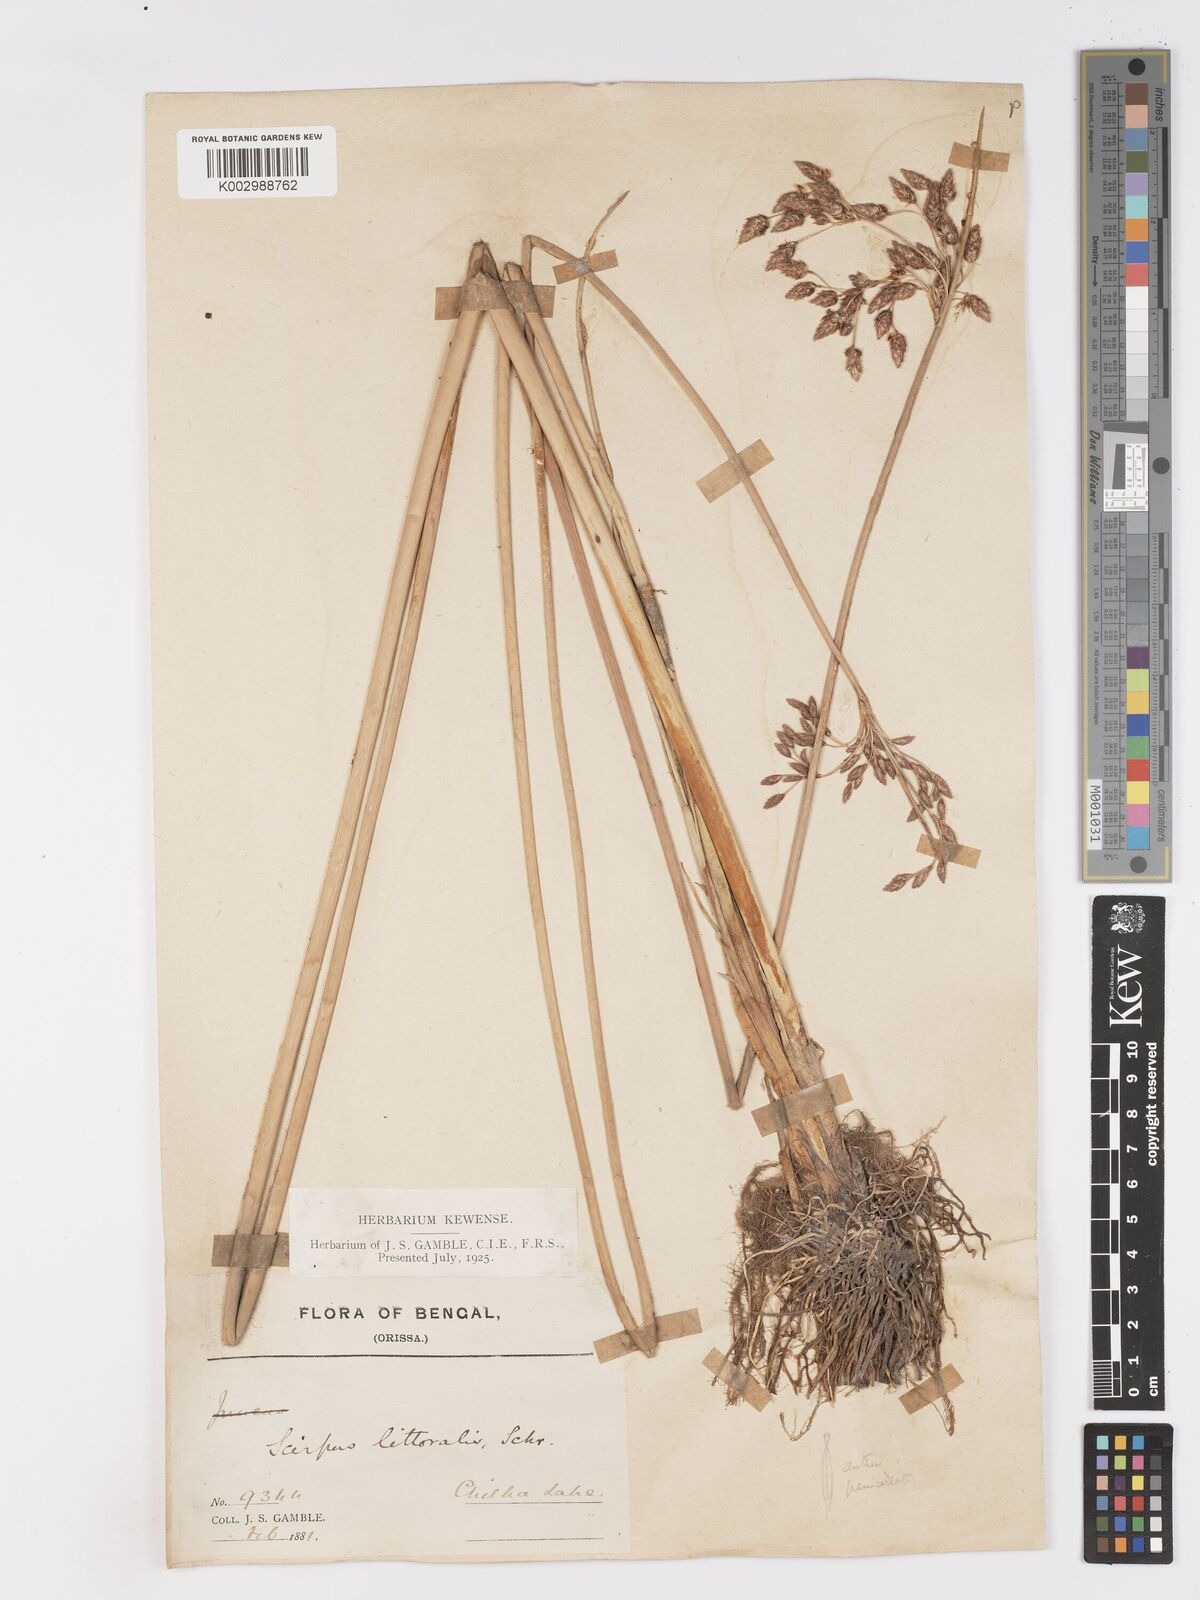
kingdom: Plantae
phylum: Tracheophyta
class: Liliopsida
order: Poales
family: Cyperaceae
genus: Schoenoplectus
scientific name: Schoenoplectus litoralis
